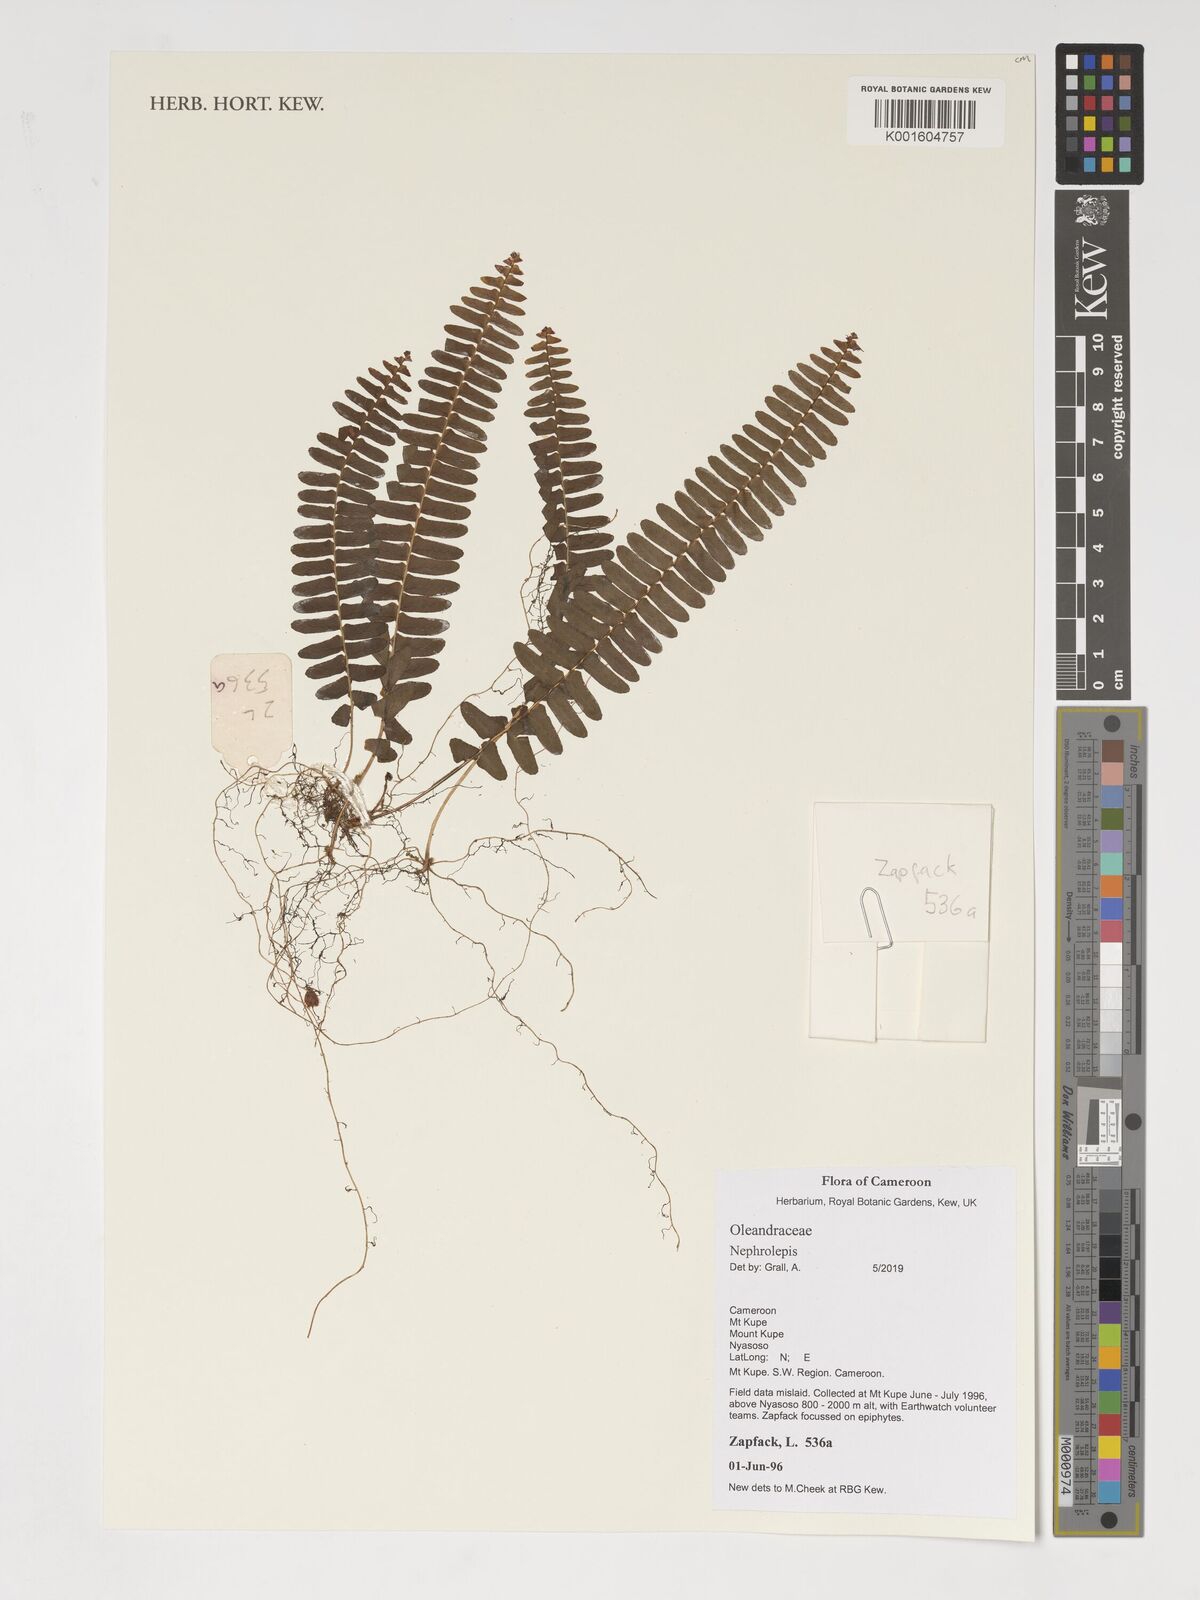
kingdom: Plantae
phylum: Tracheophyta
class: Polypodiopsida
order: Polypodiales
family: Nephrolepidaceae
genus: Nephrolepis
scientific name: Nephrolepis
